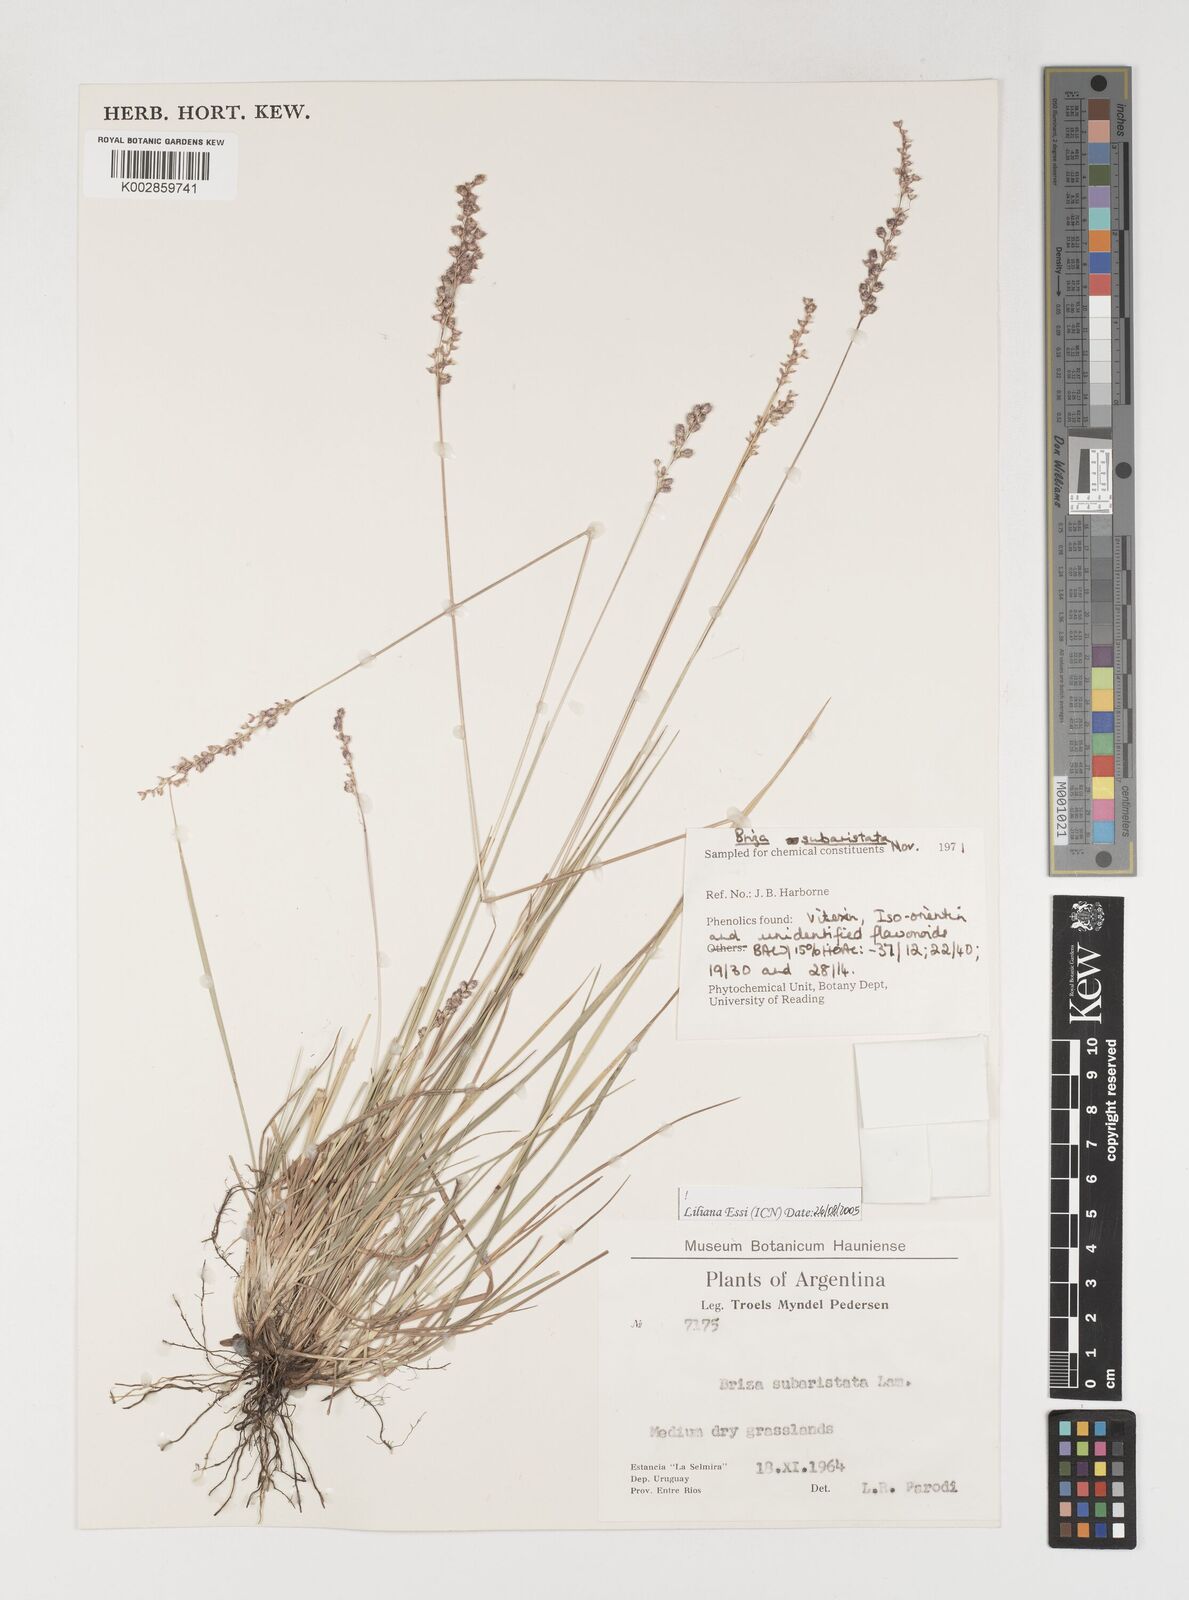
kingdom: Plantae
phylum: Tracheophyta
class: Liliopsida
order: Poales
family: Poaceae
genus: Chascolytrum
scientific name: Chascolytrum subaristatum
